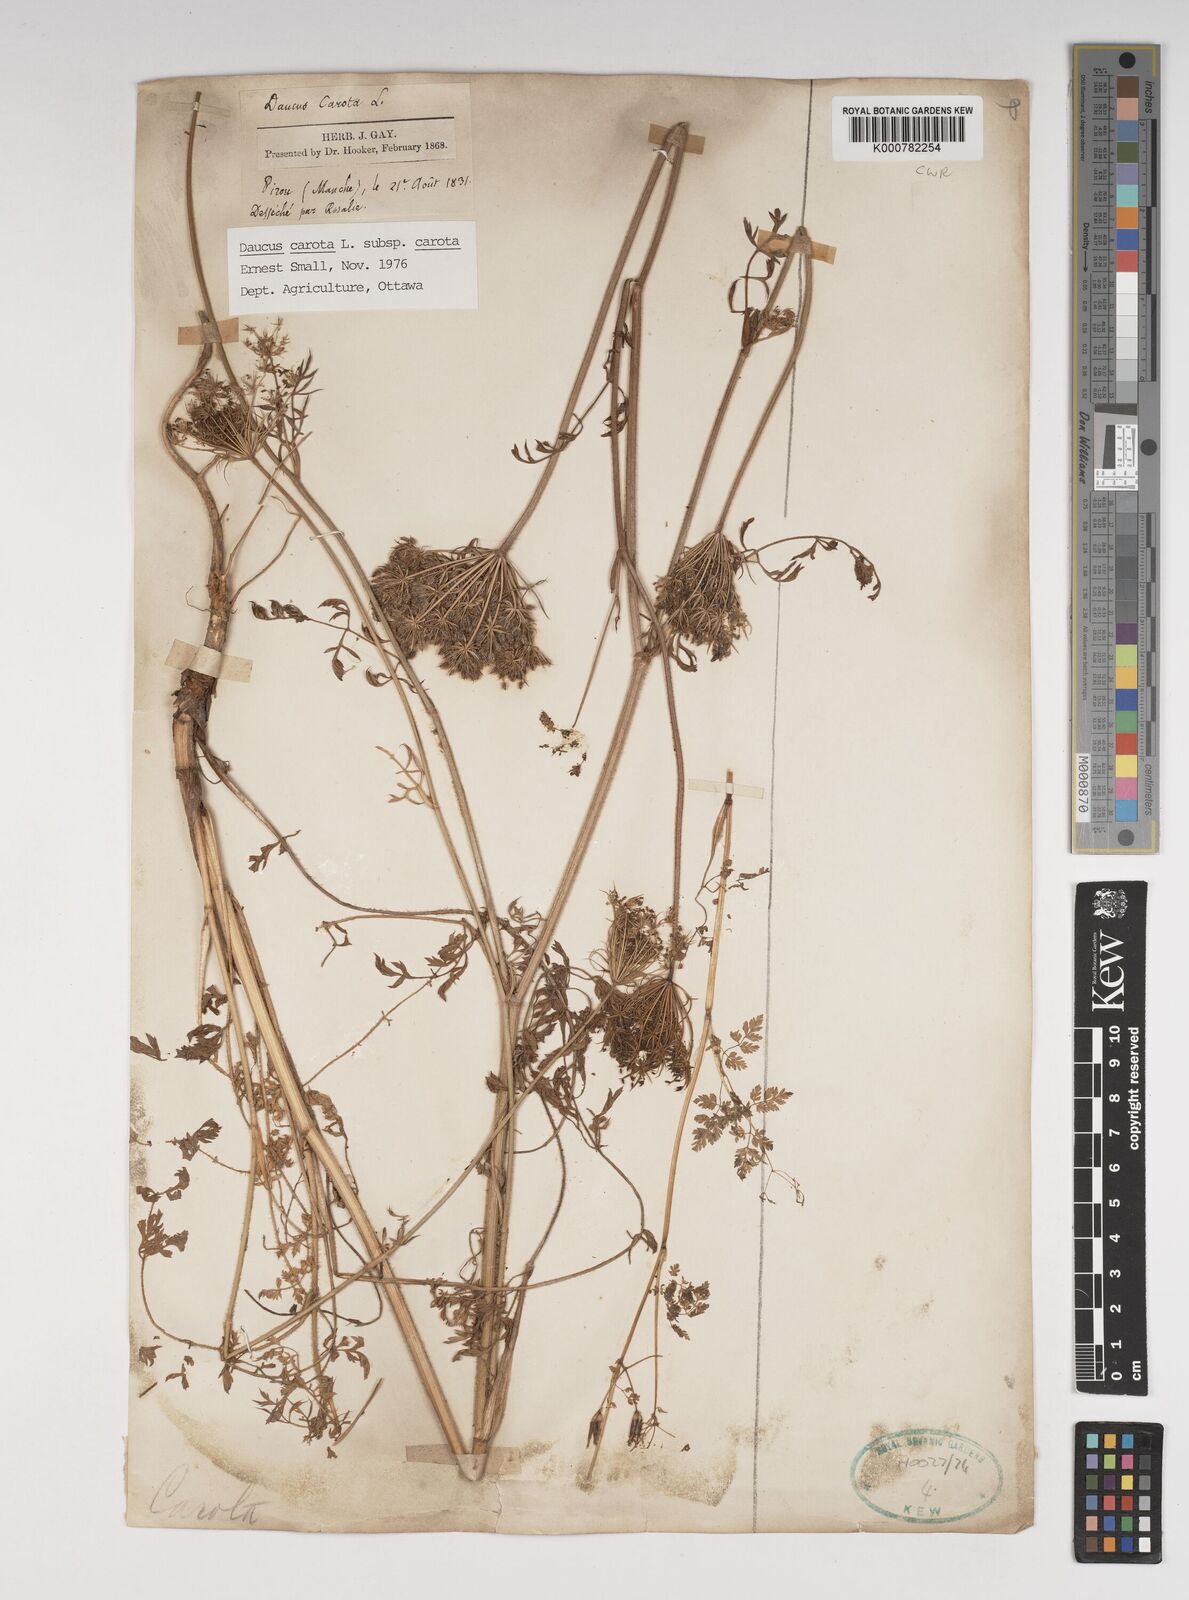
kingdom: Plantae
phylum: Tracheophyta
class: Magnoliopsida
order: Apiales
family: Apiaceae
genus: Daucus
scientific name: Daucus carota
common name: Wild carrot
